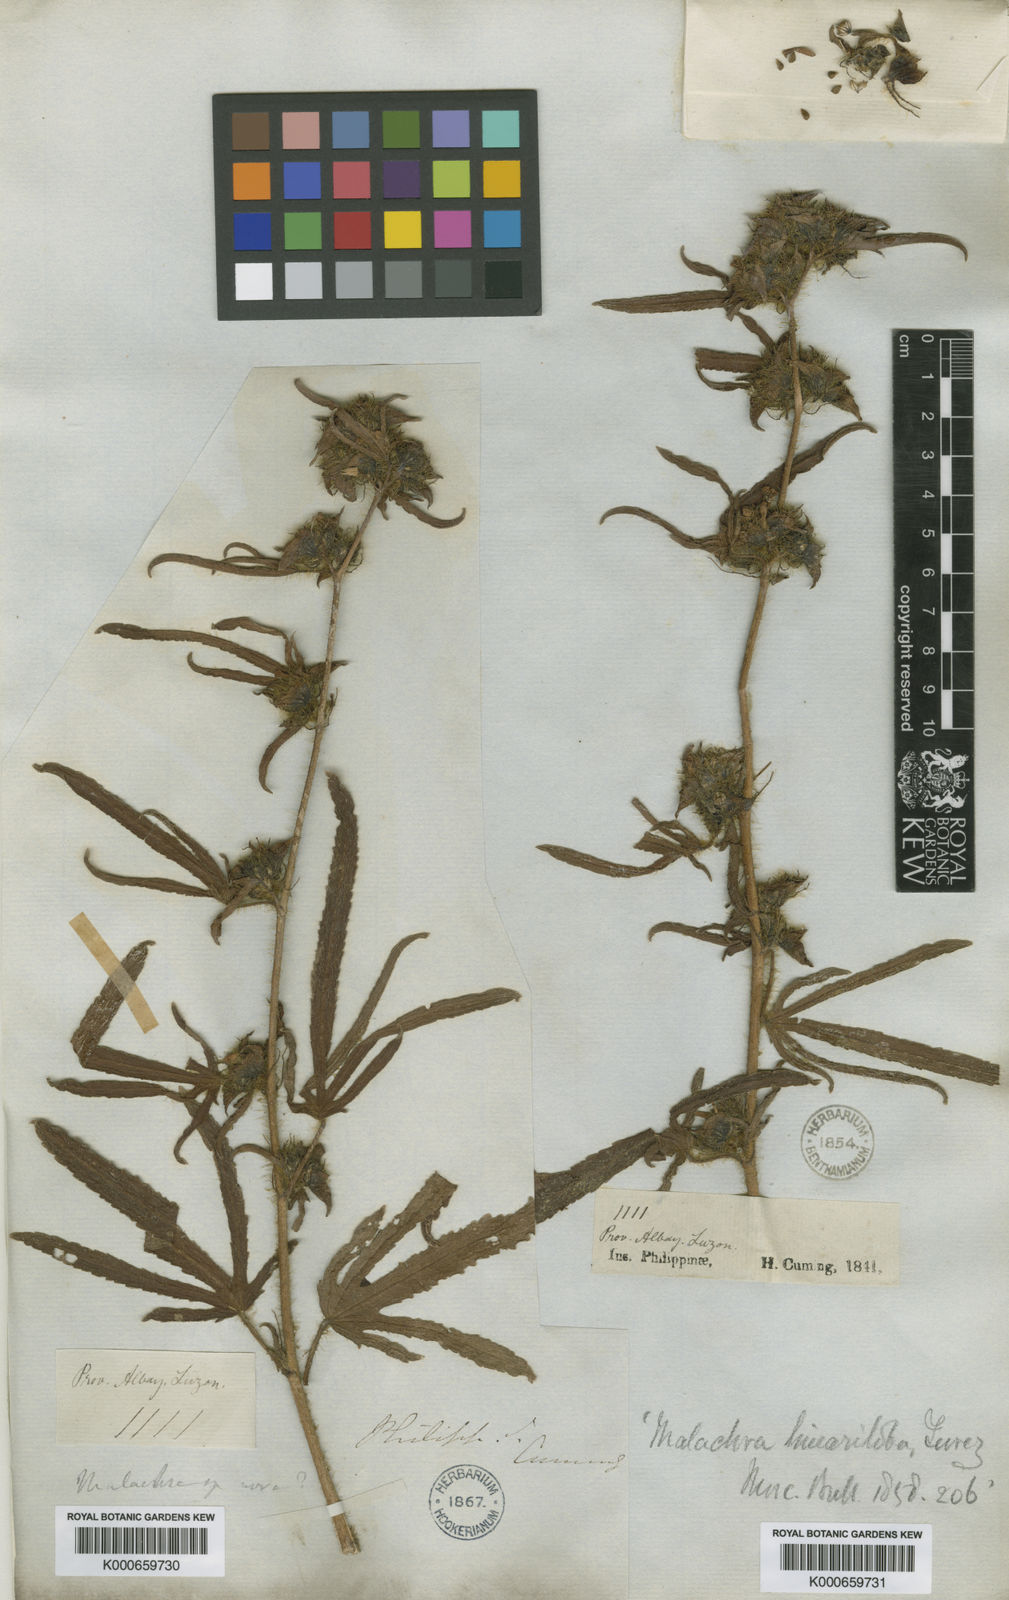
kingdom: Plantae
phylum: Tracheophyta
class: Magnoliopsida
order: Malvales
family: Malvaceae
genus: Malachra
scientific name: Malachra fasciata
